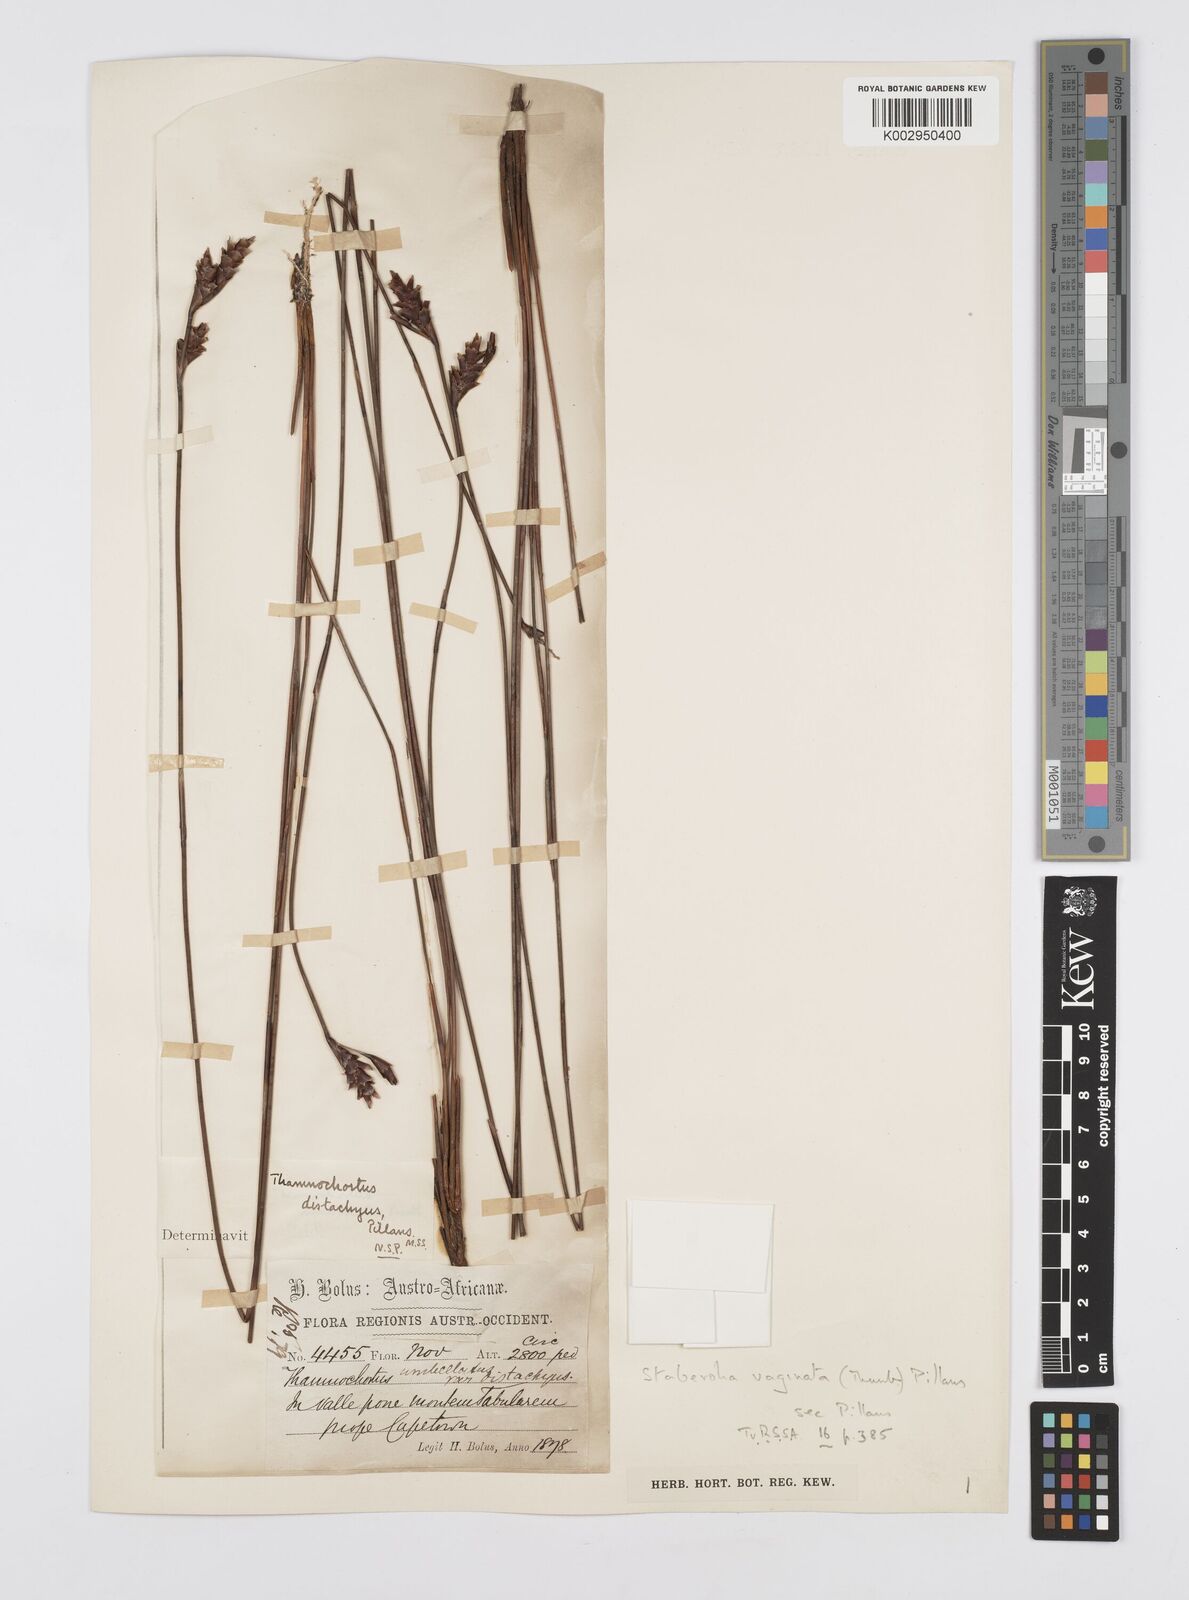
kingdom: Plantae
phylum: Tracheophyta
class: Liliopsida
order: Poales
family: Restionaceae
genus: Staberoha
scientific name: Staberoha vaginata
